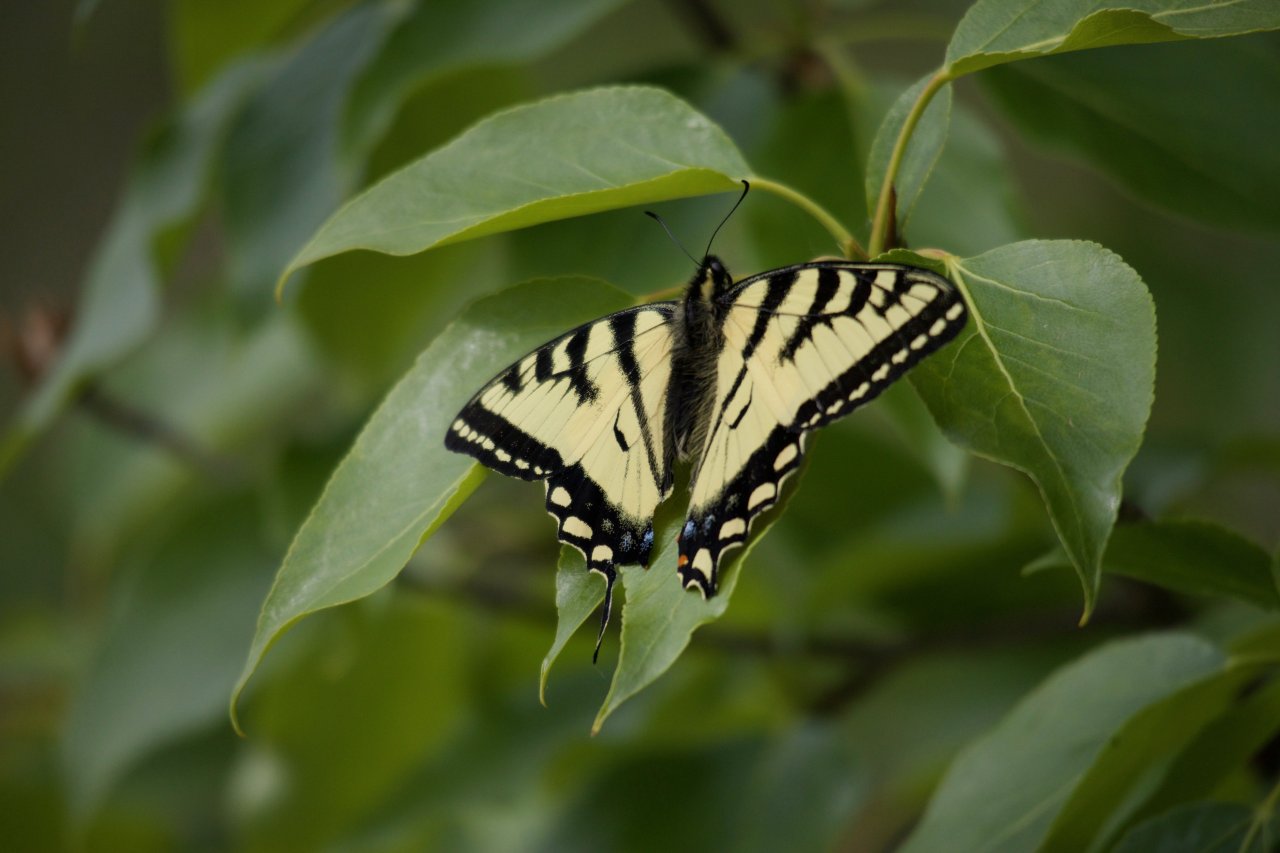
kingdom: Animalia
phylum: Arthropoda
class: Insecta
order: Lepidoptera
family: Papilionidae
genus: Pterourus
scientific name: Pterourus canadensis
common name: Canadian Tiger Swallowtail
